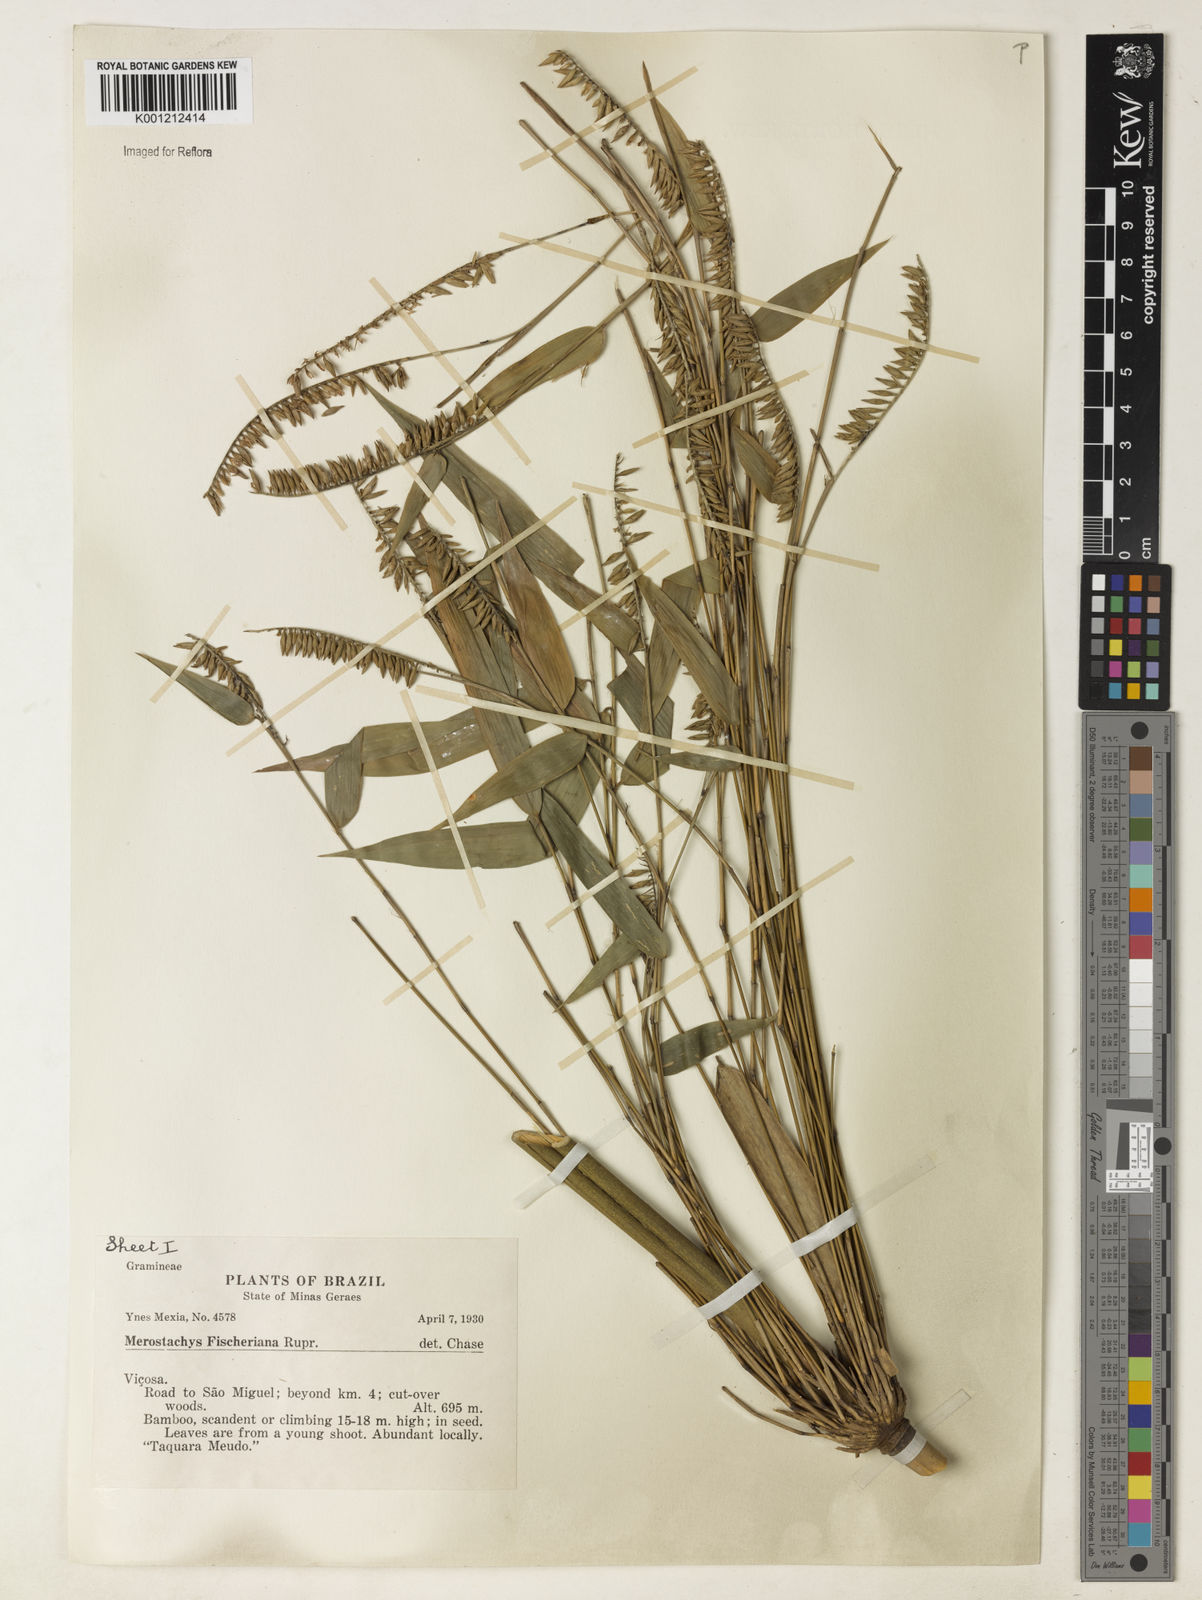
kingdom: Plantae
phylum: Tracheophyta
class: Liliopsida
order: Poales
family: Poaceae
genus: Merostachys
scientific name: Merostachys
